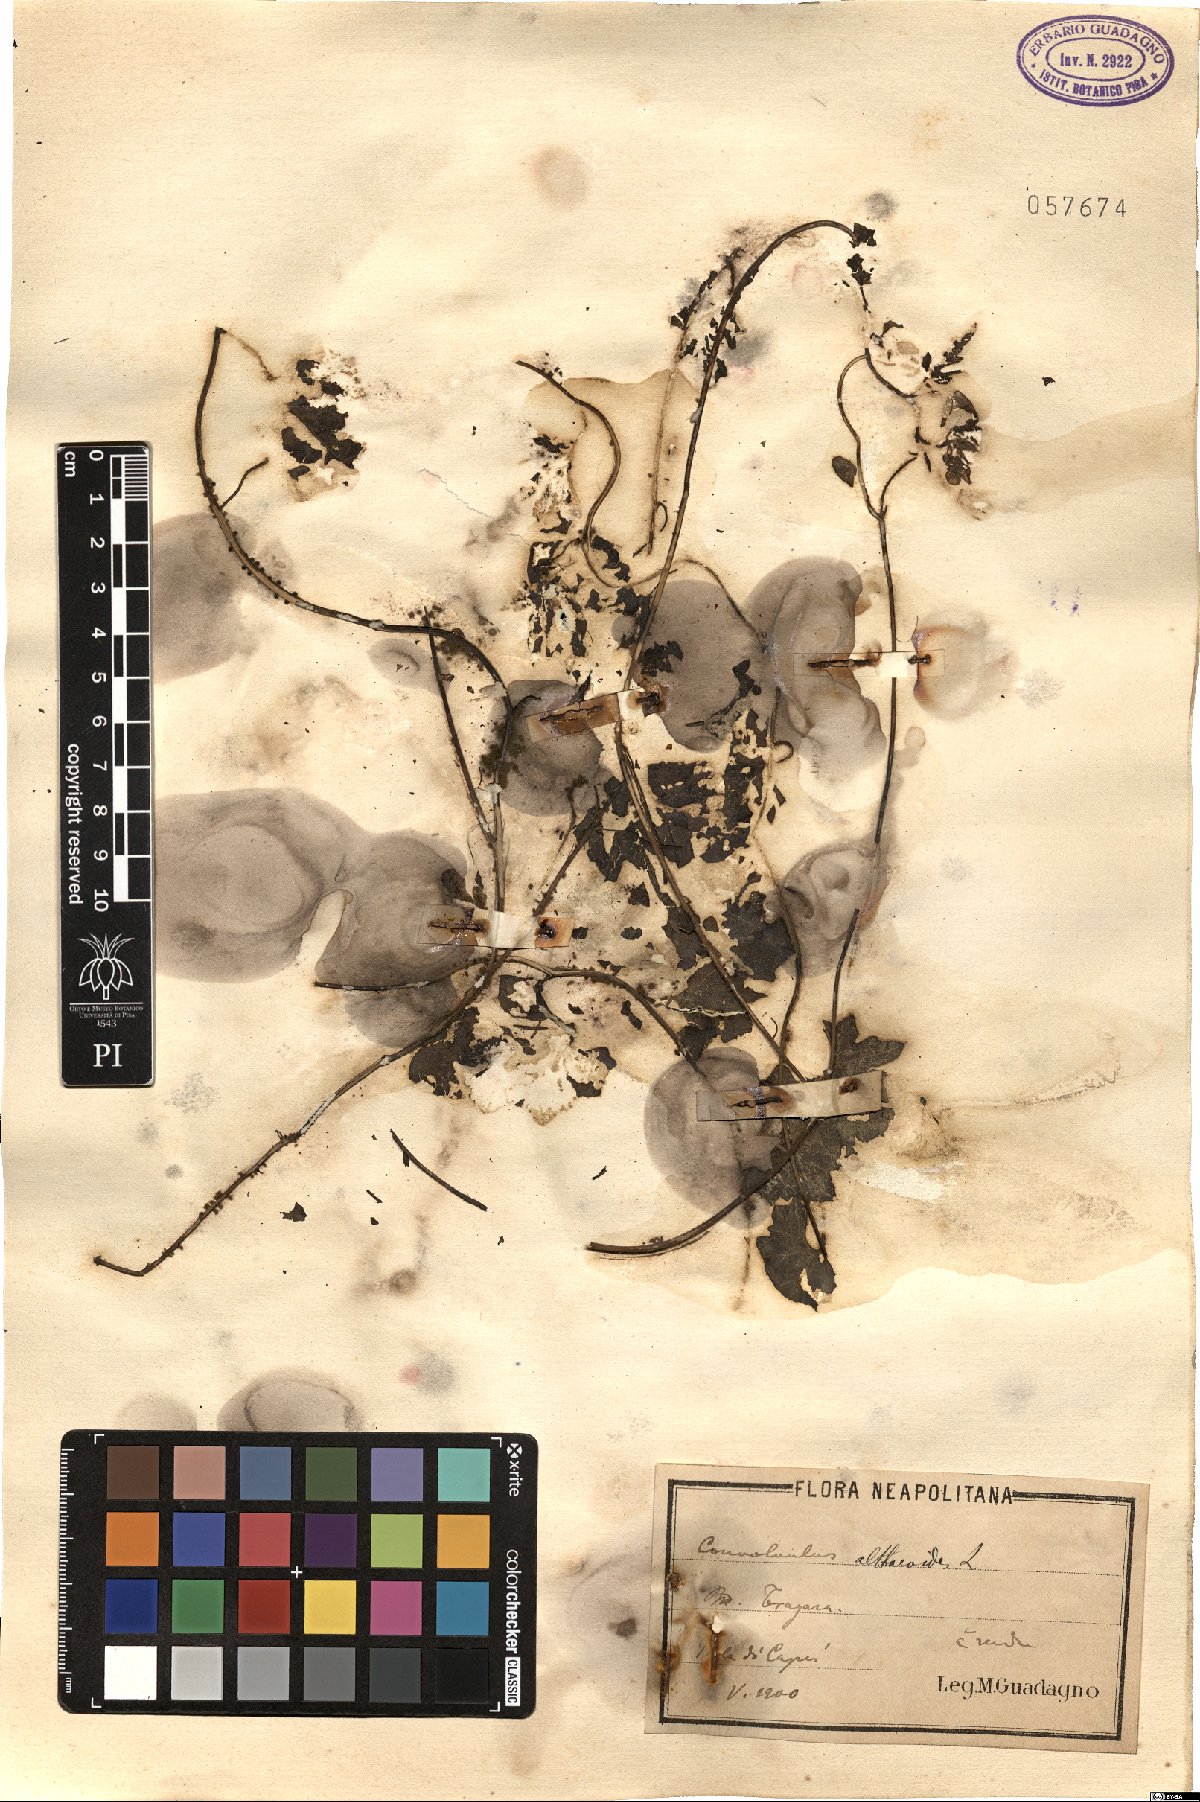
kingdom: Plantae
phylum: Tracheophyta
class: Magnoliopsida
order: Solanales
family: Convolvulaceae
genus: Convolvulus
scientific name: Convolvulus althaeoides
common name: Mallow bindweed
